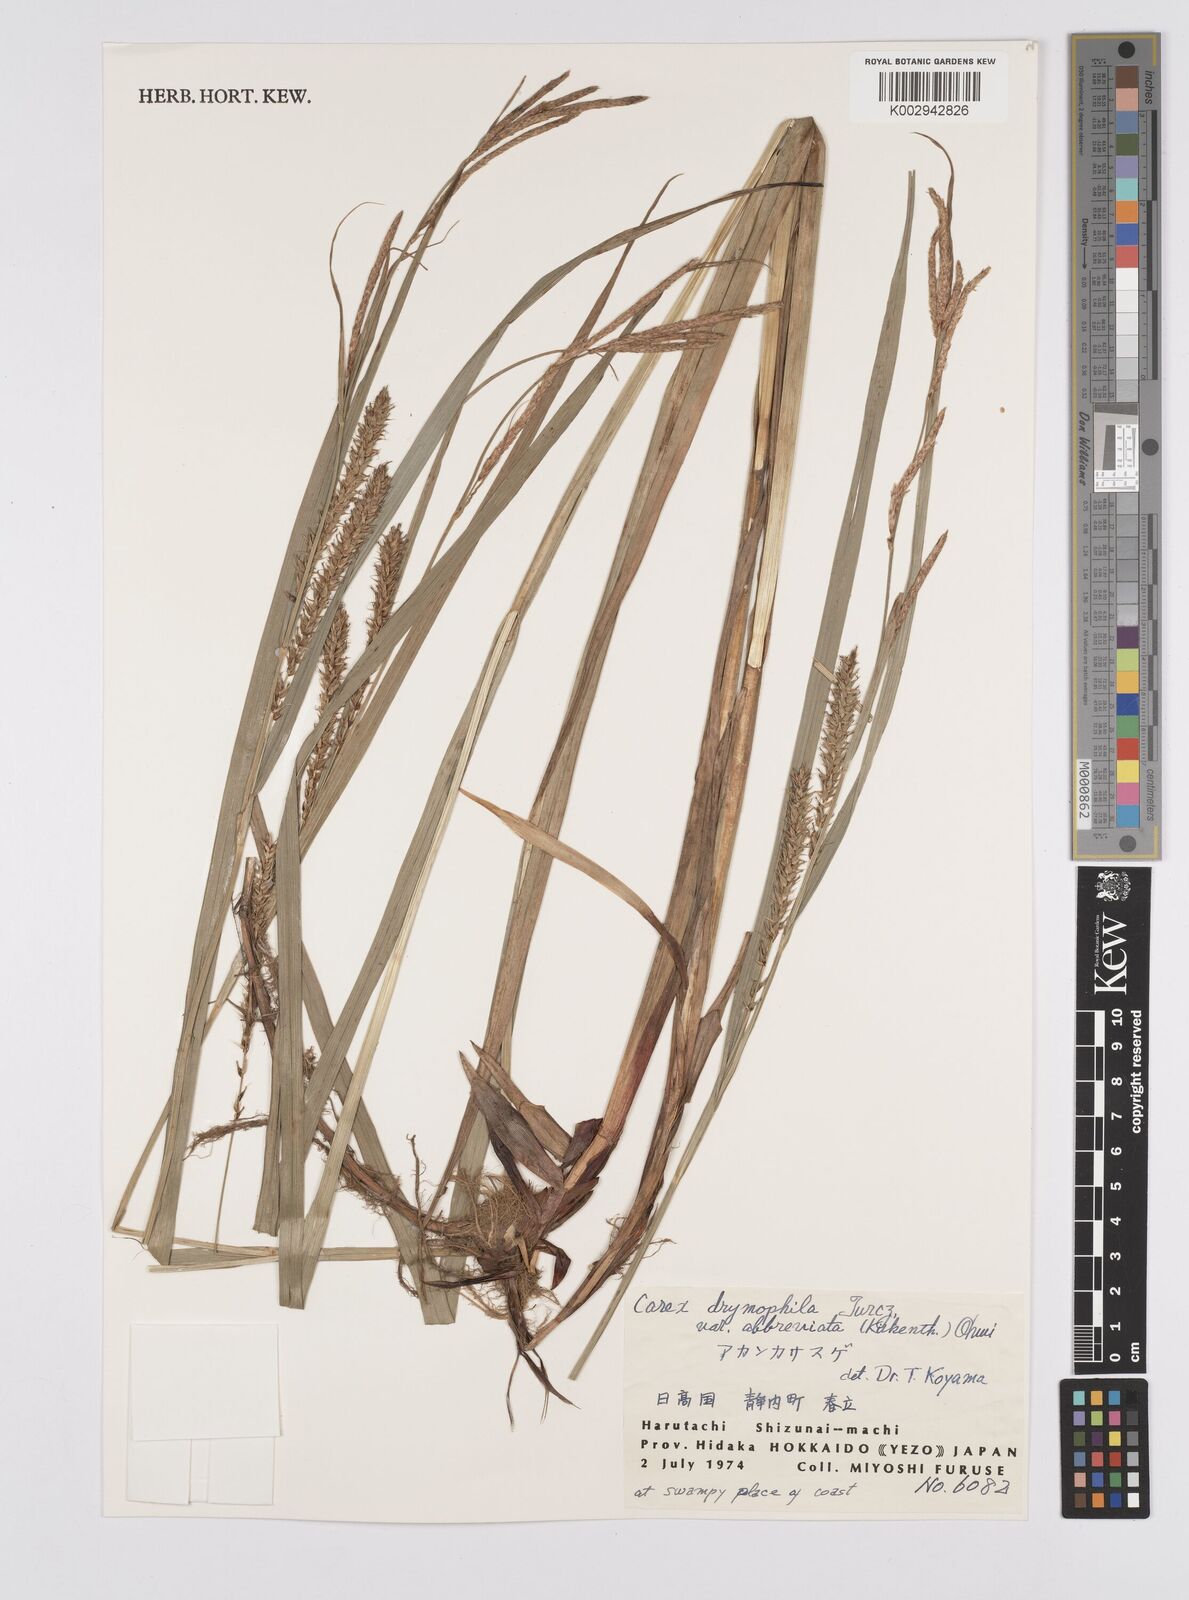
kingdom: Plantae
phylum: Tracheophyta
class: Liliopsida
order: Poales
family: Cyperaceae
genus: Carex
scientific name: Carex drymophila
